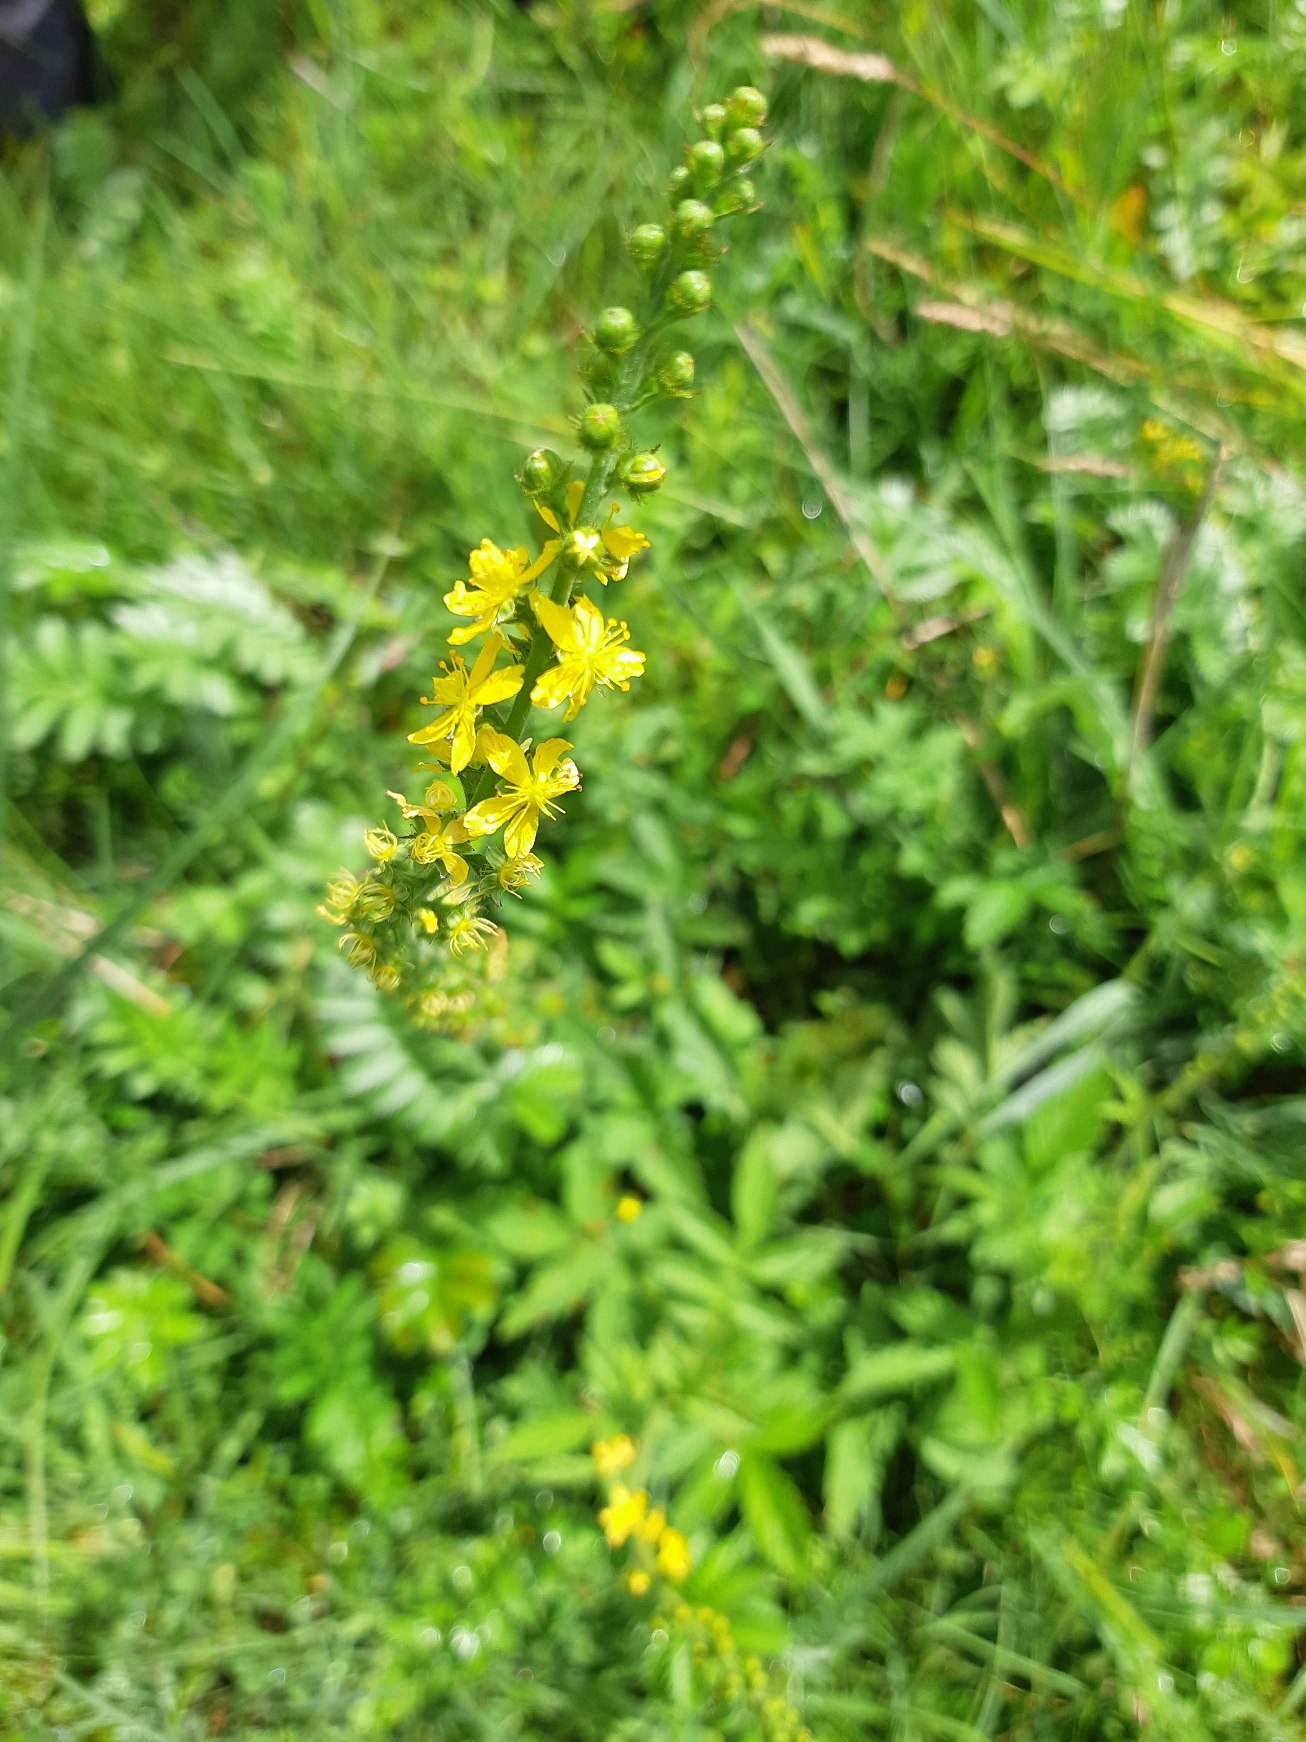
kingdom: Plantae
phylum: Tracheophyta
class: Magnoliopsida
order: Rosales
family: Rosaceae
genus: Agrimonia
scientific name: Agrimonia eupatoria
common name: Almindelig agermåne
